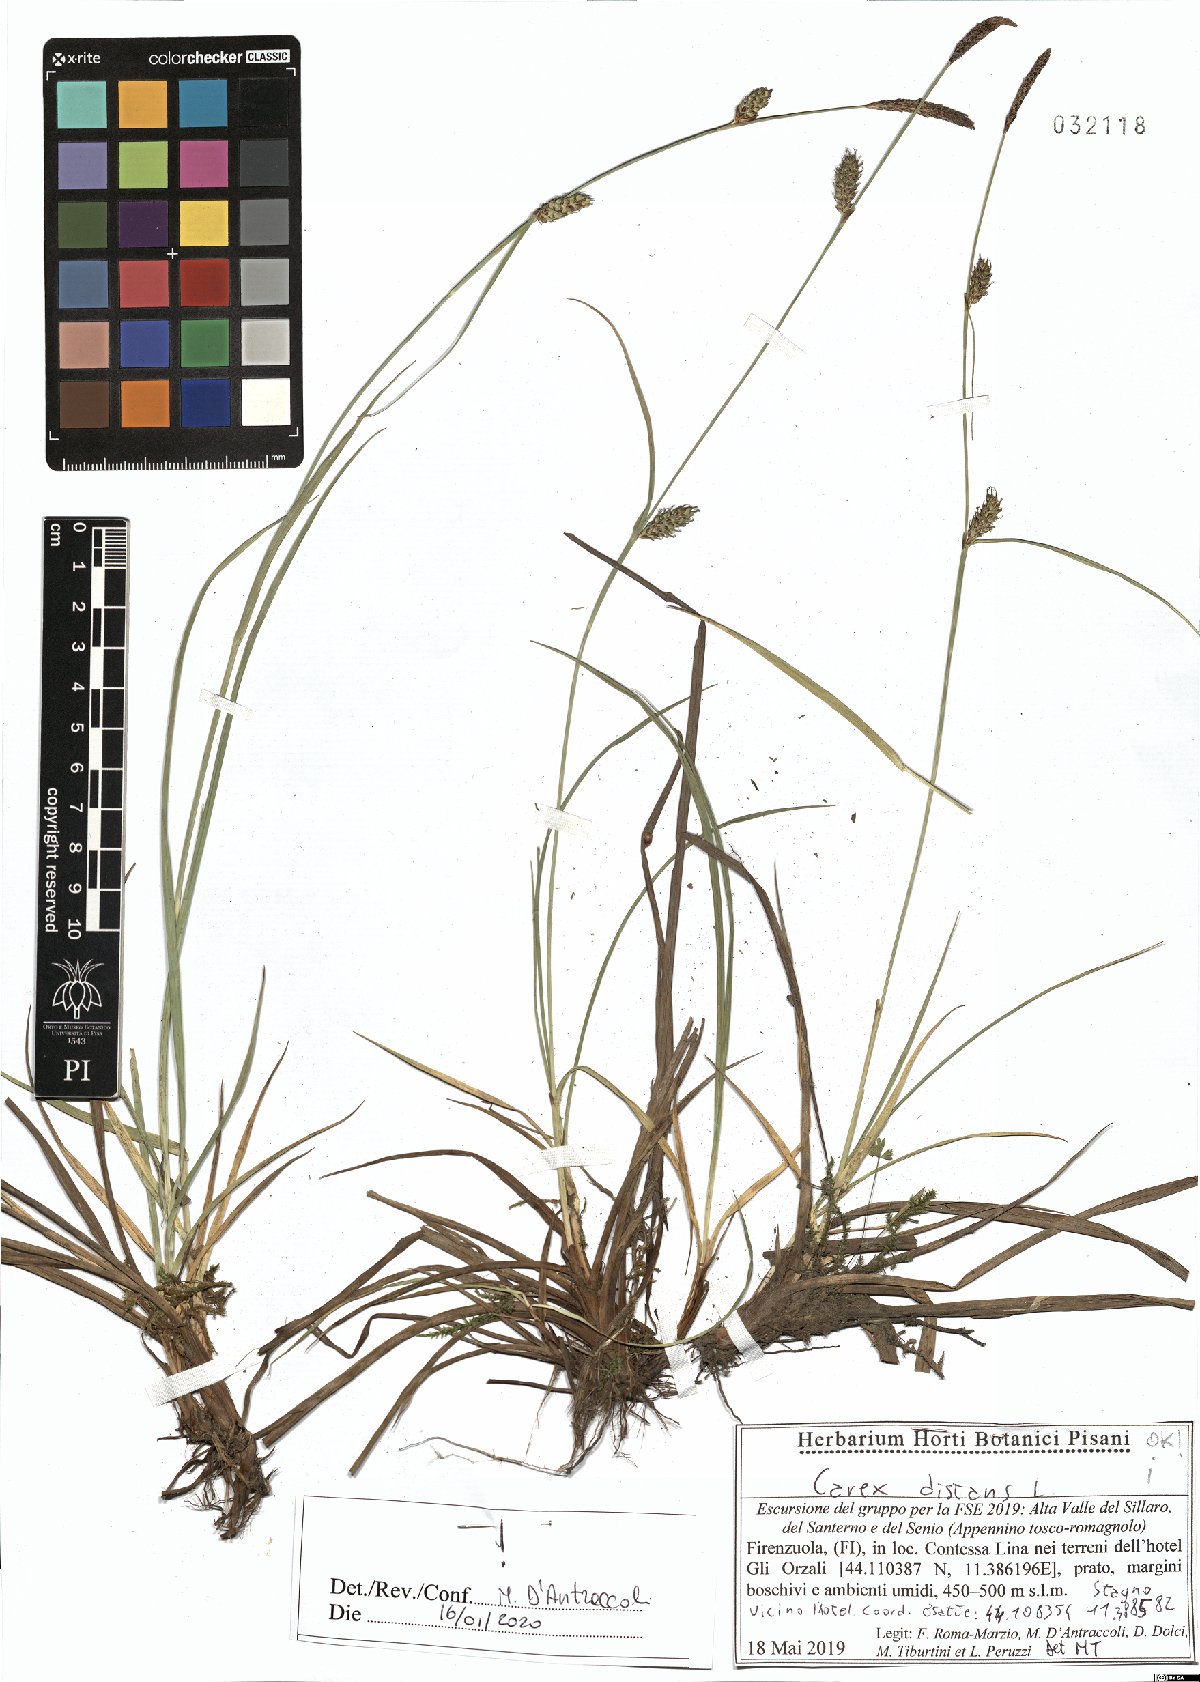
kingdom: Plantae
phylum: Tracheophyta
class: Liliopsida
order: Poales
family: Cyperaceae
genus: Carex
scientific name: Carex distans
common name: Distant sedge
